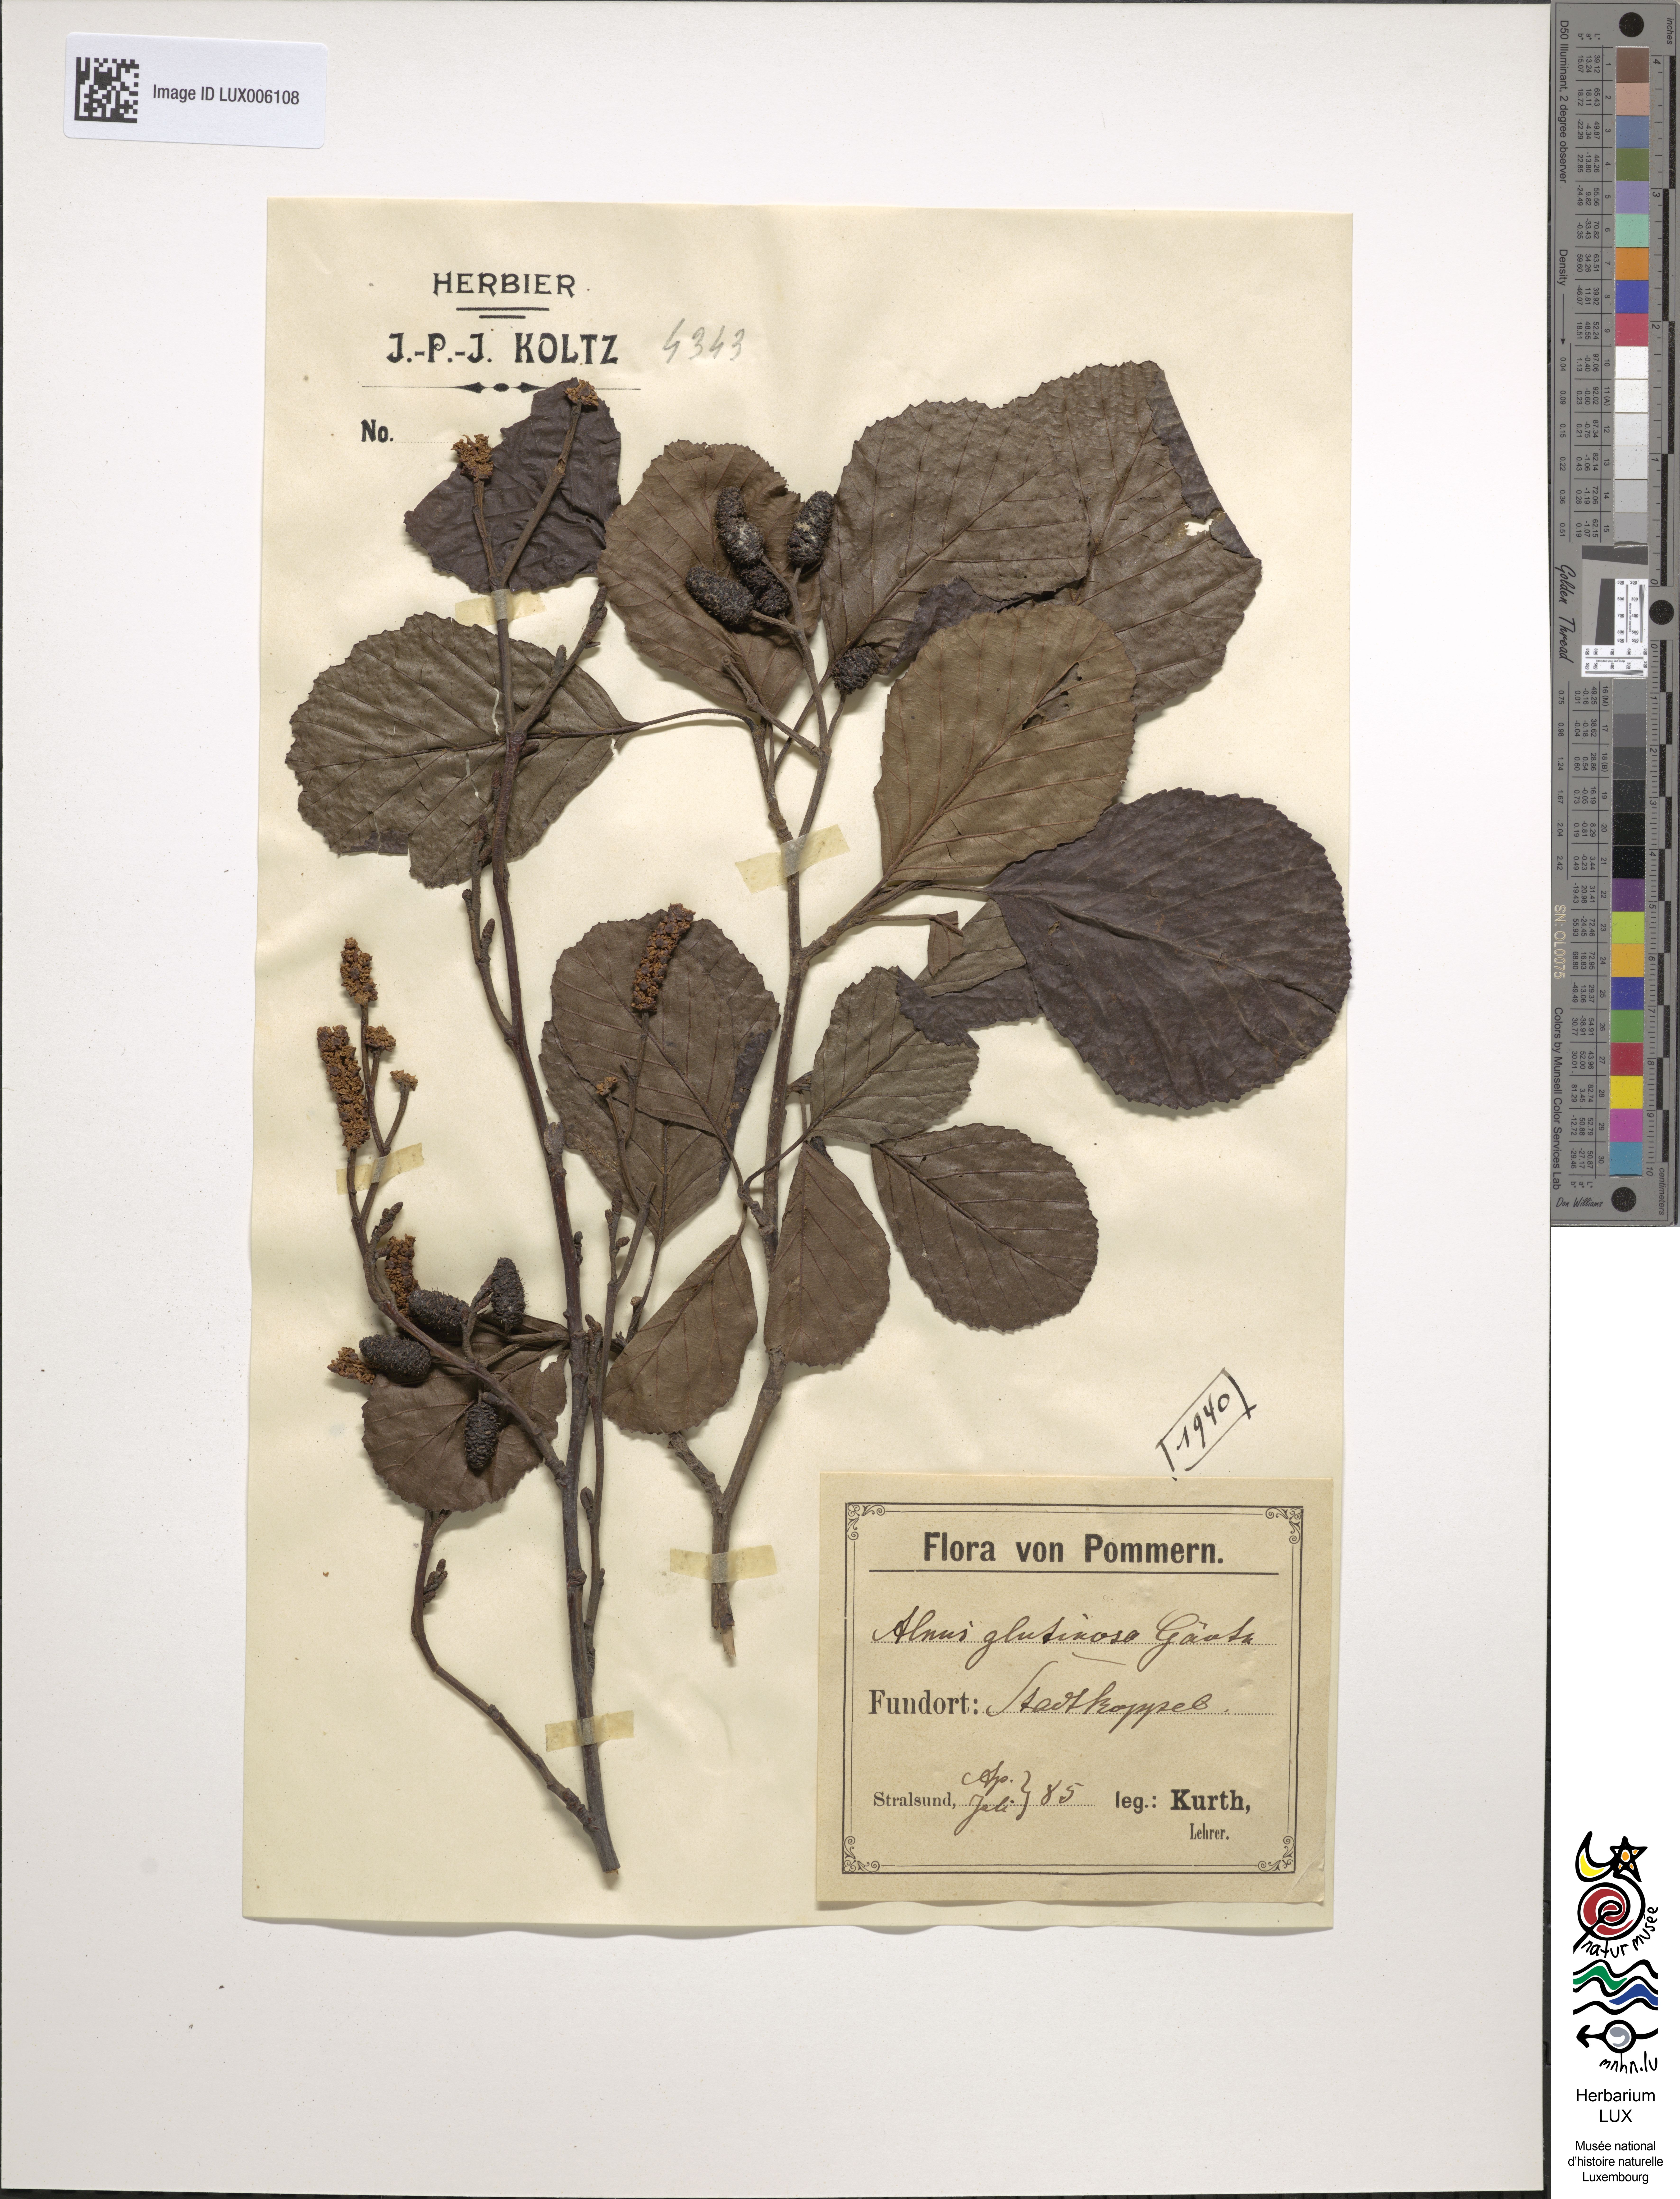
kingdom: Plantae
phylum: Tracheophyta
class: Magnoliopsida
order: Fagales
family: Betulaceae
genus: Alnus
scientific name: Alnus glutinosa
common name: Black alder
